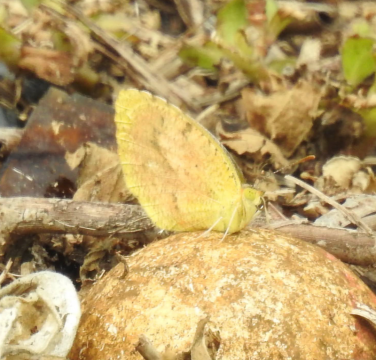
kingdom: Animalia
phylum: Arthropoda
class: Insecta
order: Lepidoptera
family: Pieridae
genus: Abaeis
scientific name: Abaeis nicippe
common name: Sleepy Orange
